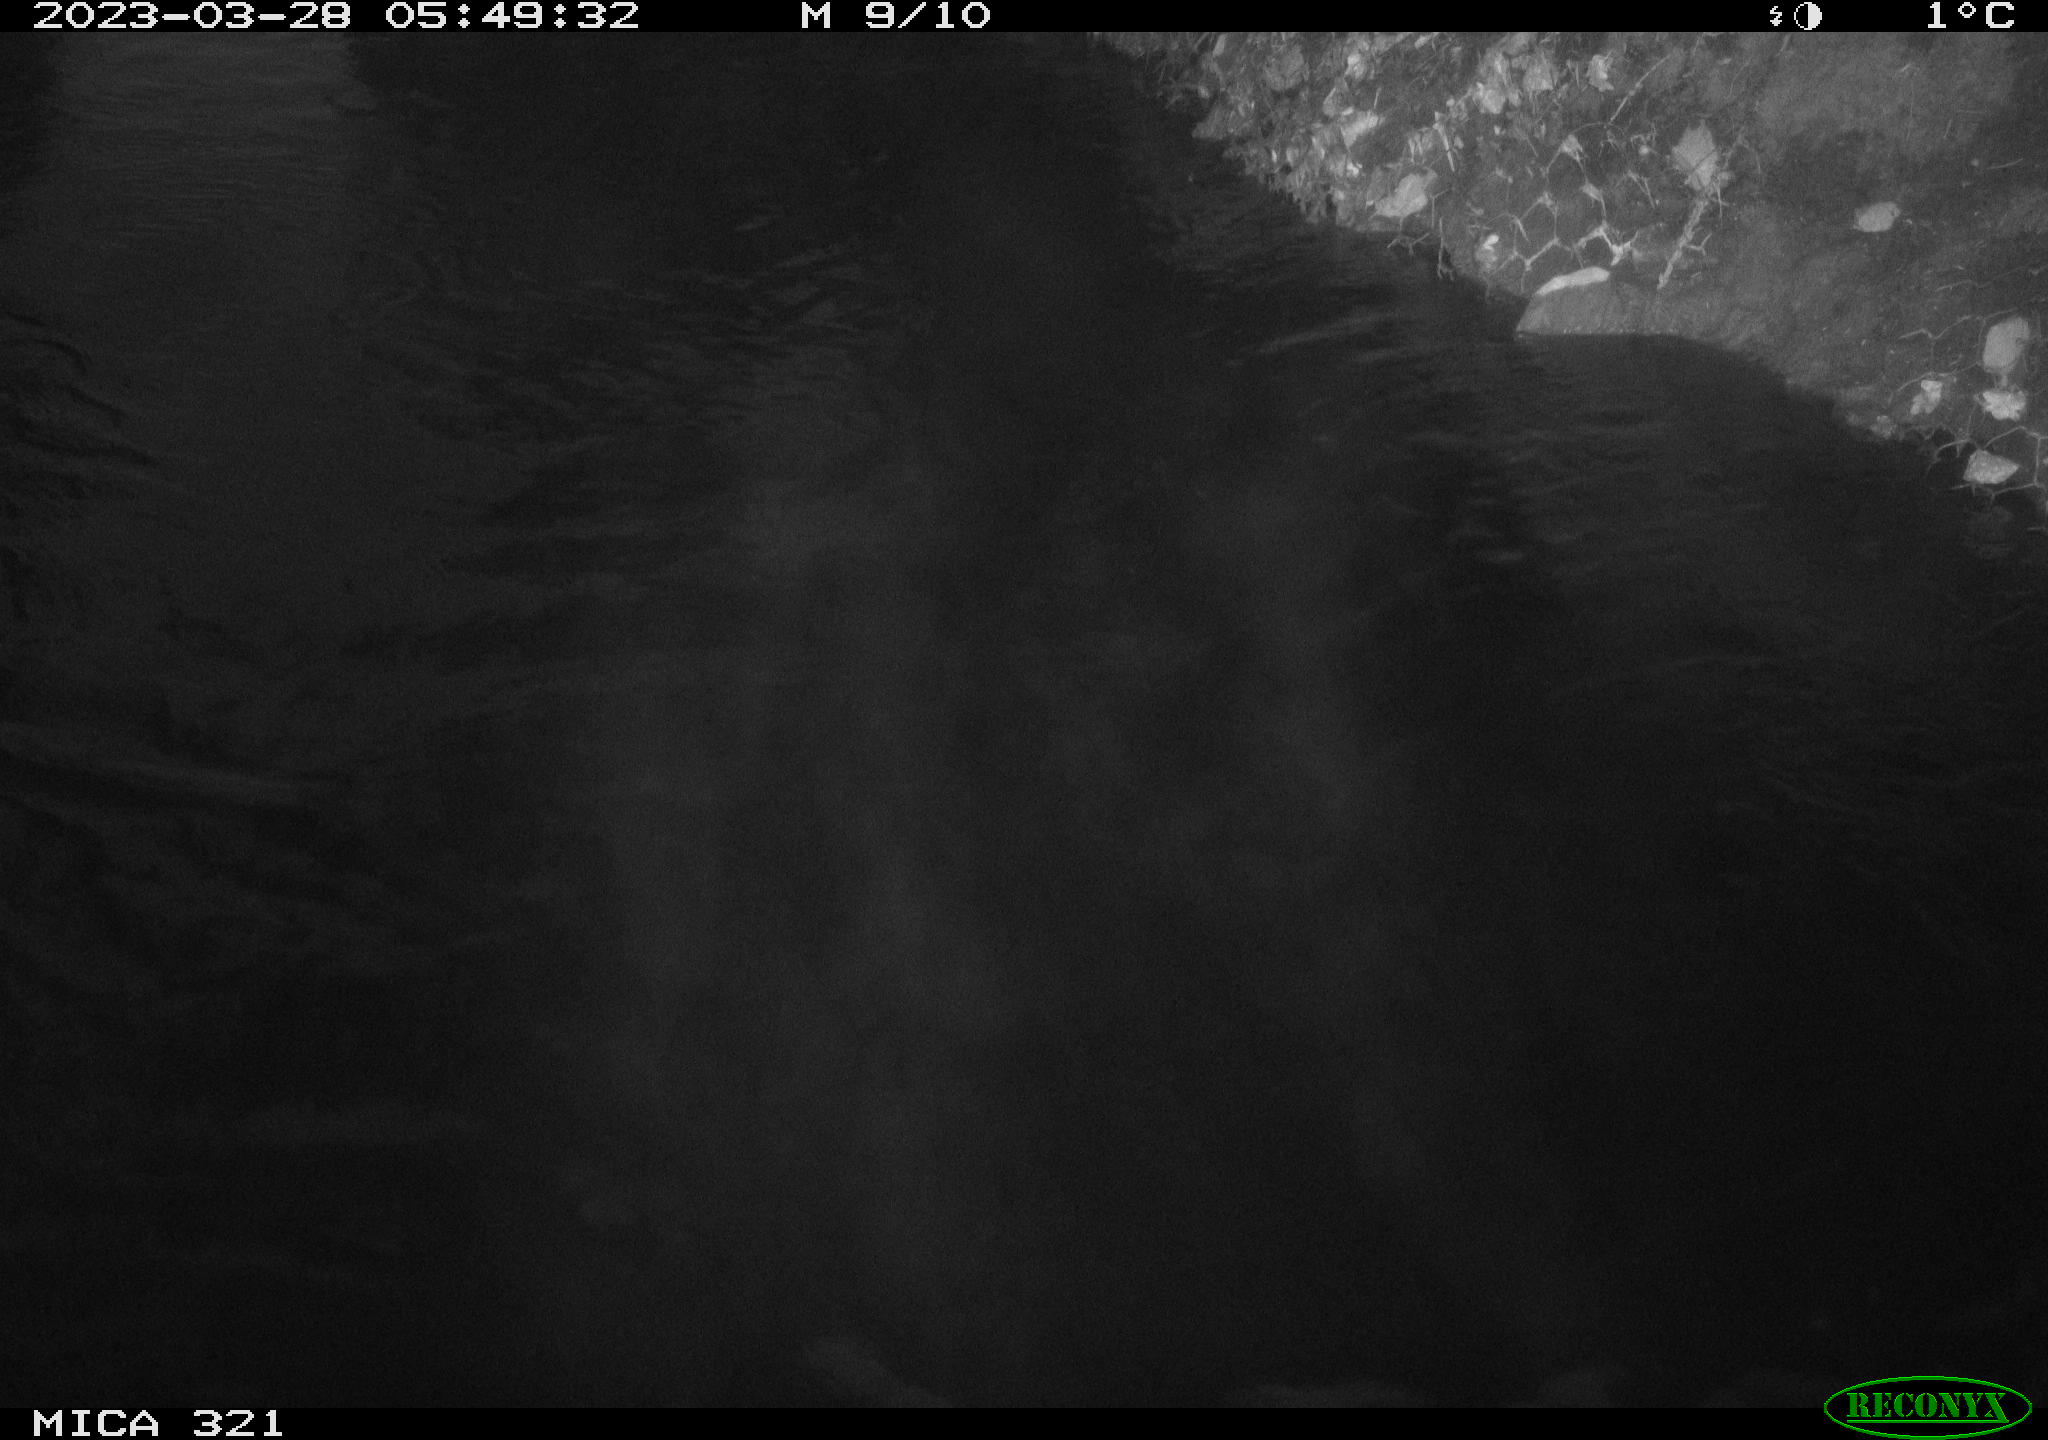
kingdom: Animalia
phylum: Chordata
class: Aves
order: Anseriformes
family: Anatidae
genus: Anas
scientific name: Anas
